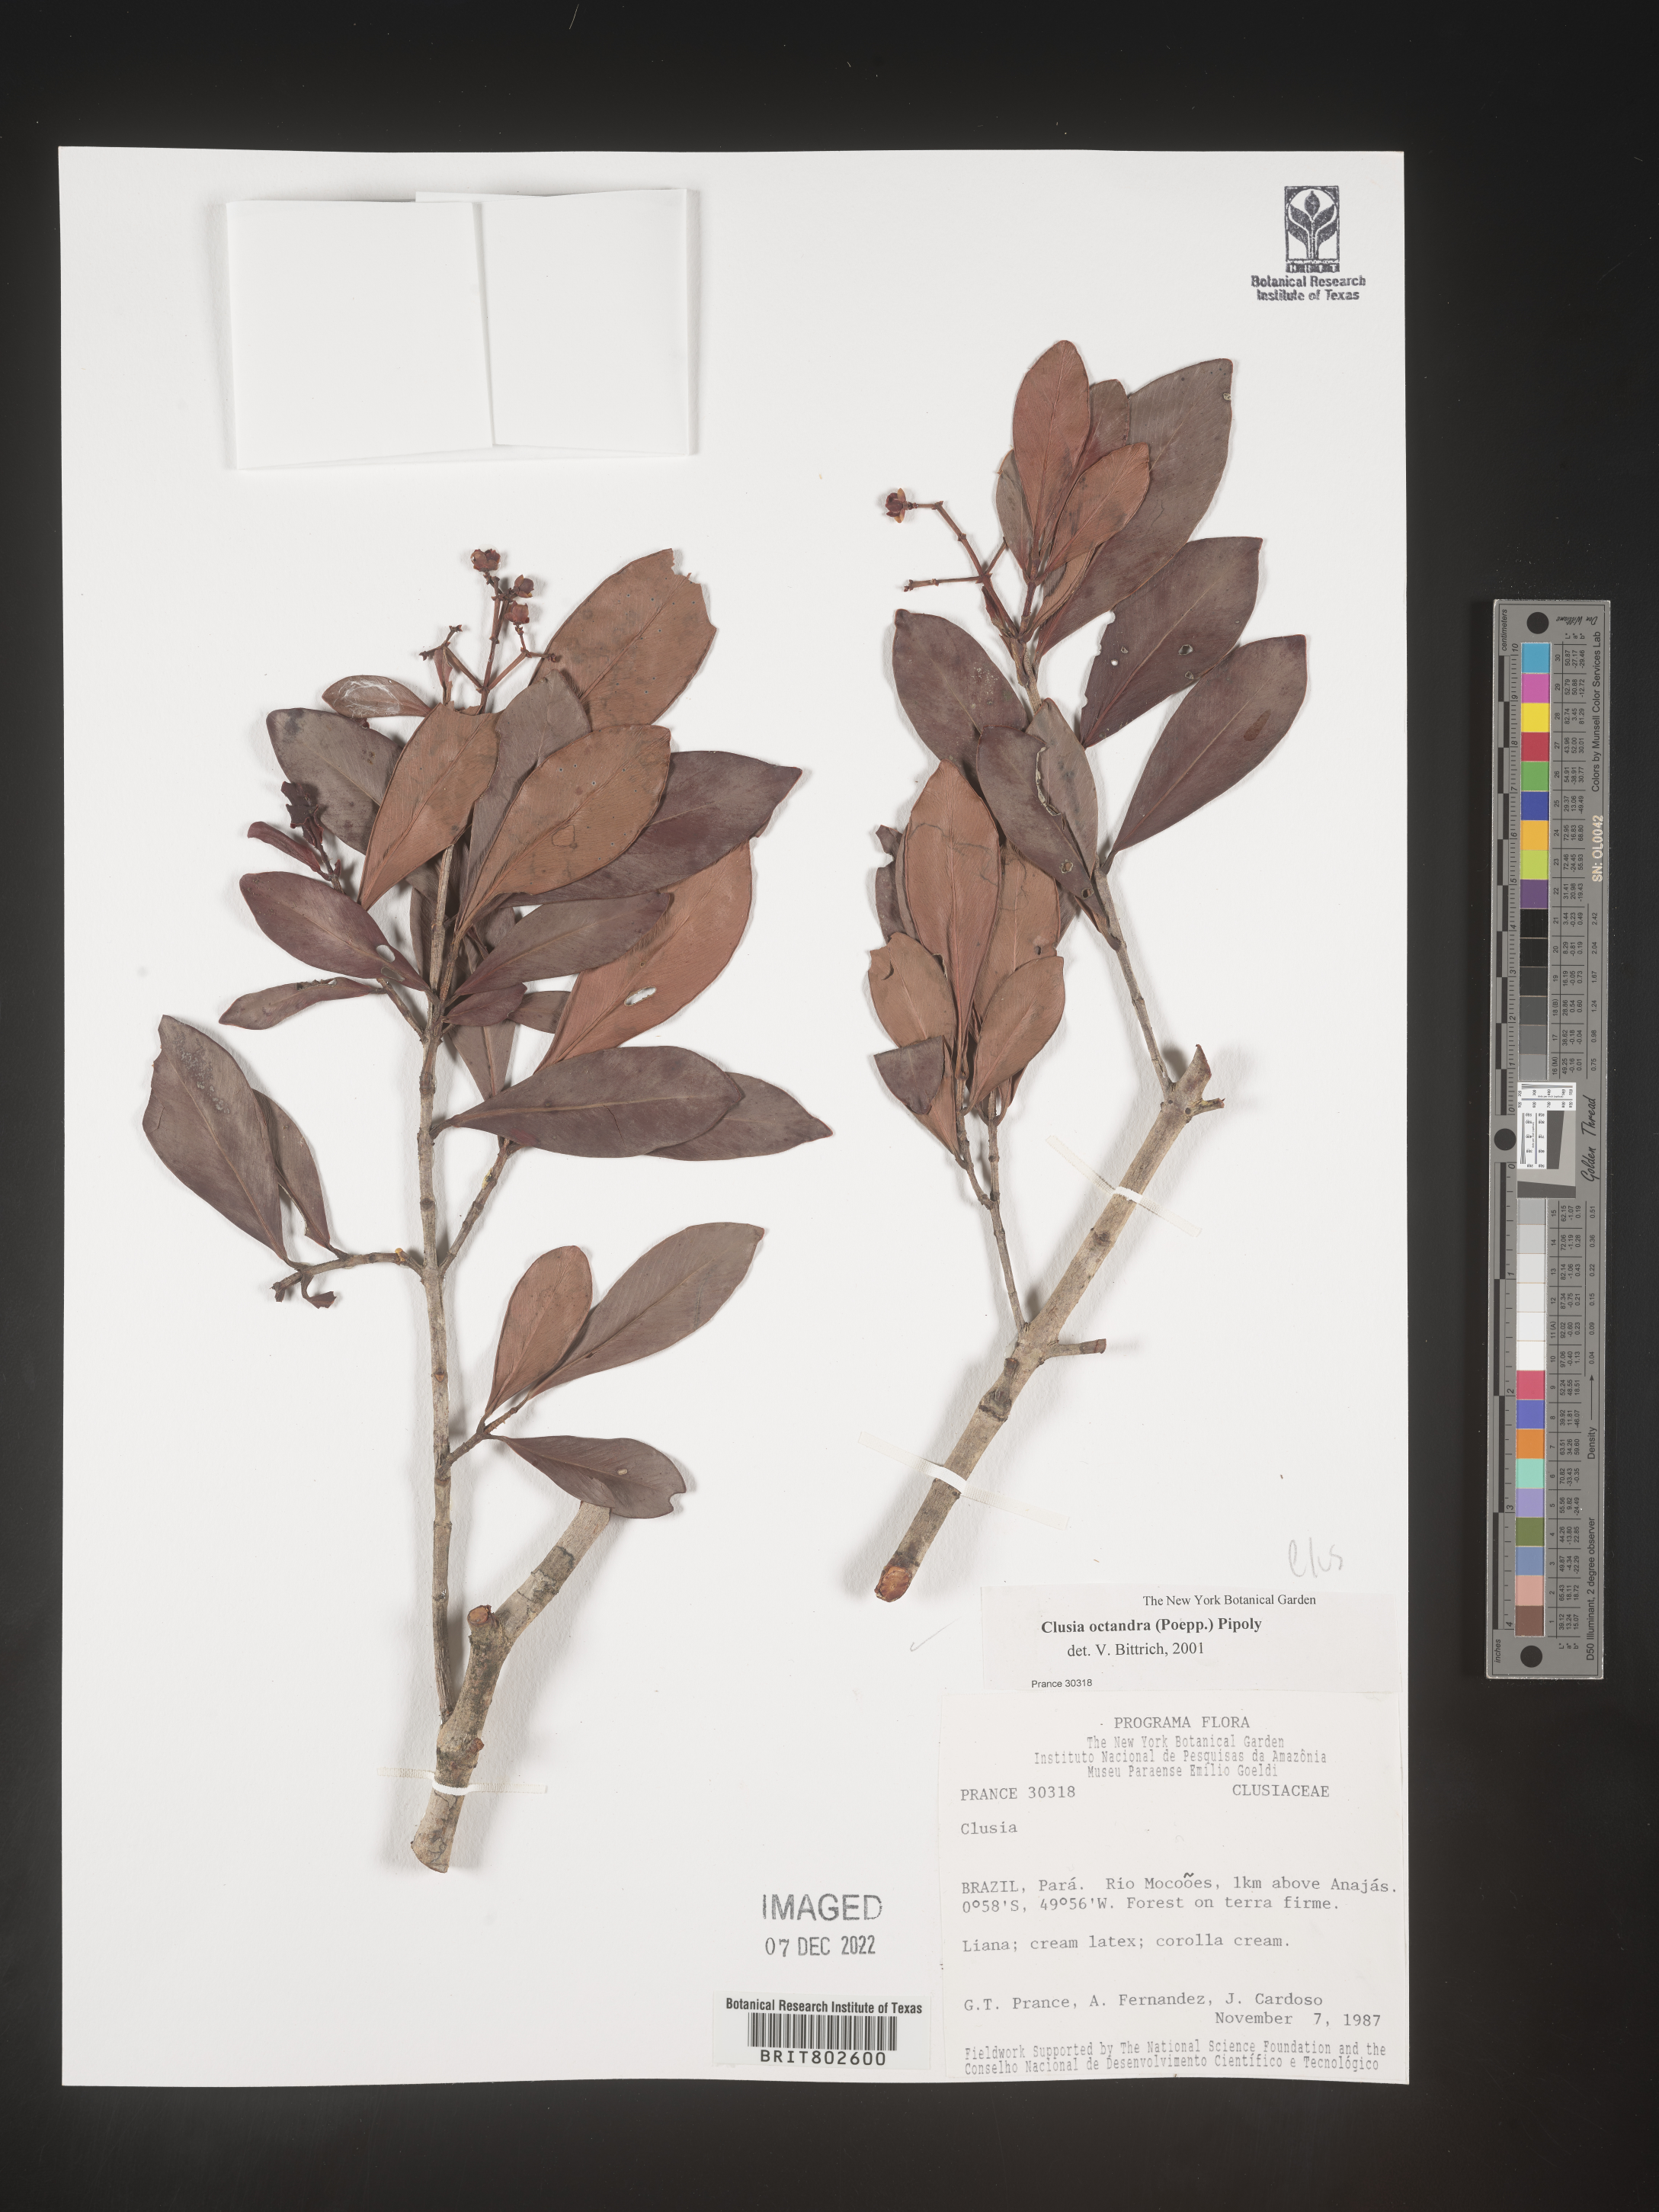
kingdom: Plantae
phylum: Tracheophyta
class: Magnoliopsida
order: Malpighiales
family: Clusiaceae
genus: Clusia
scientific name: Clusia
